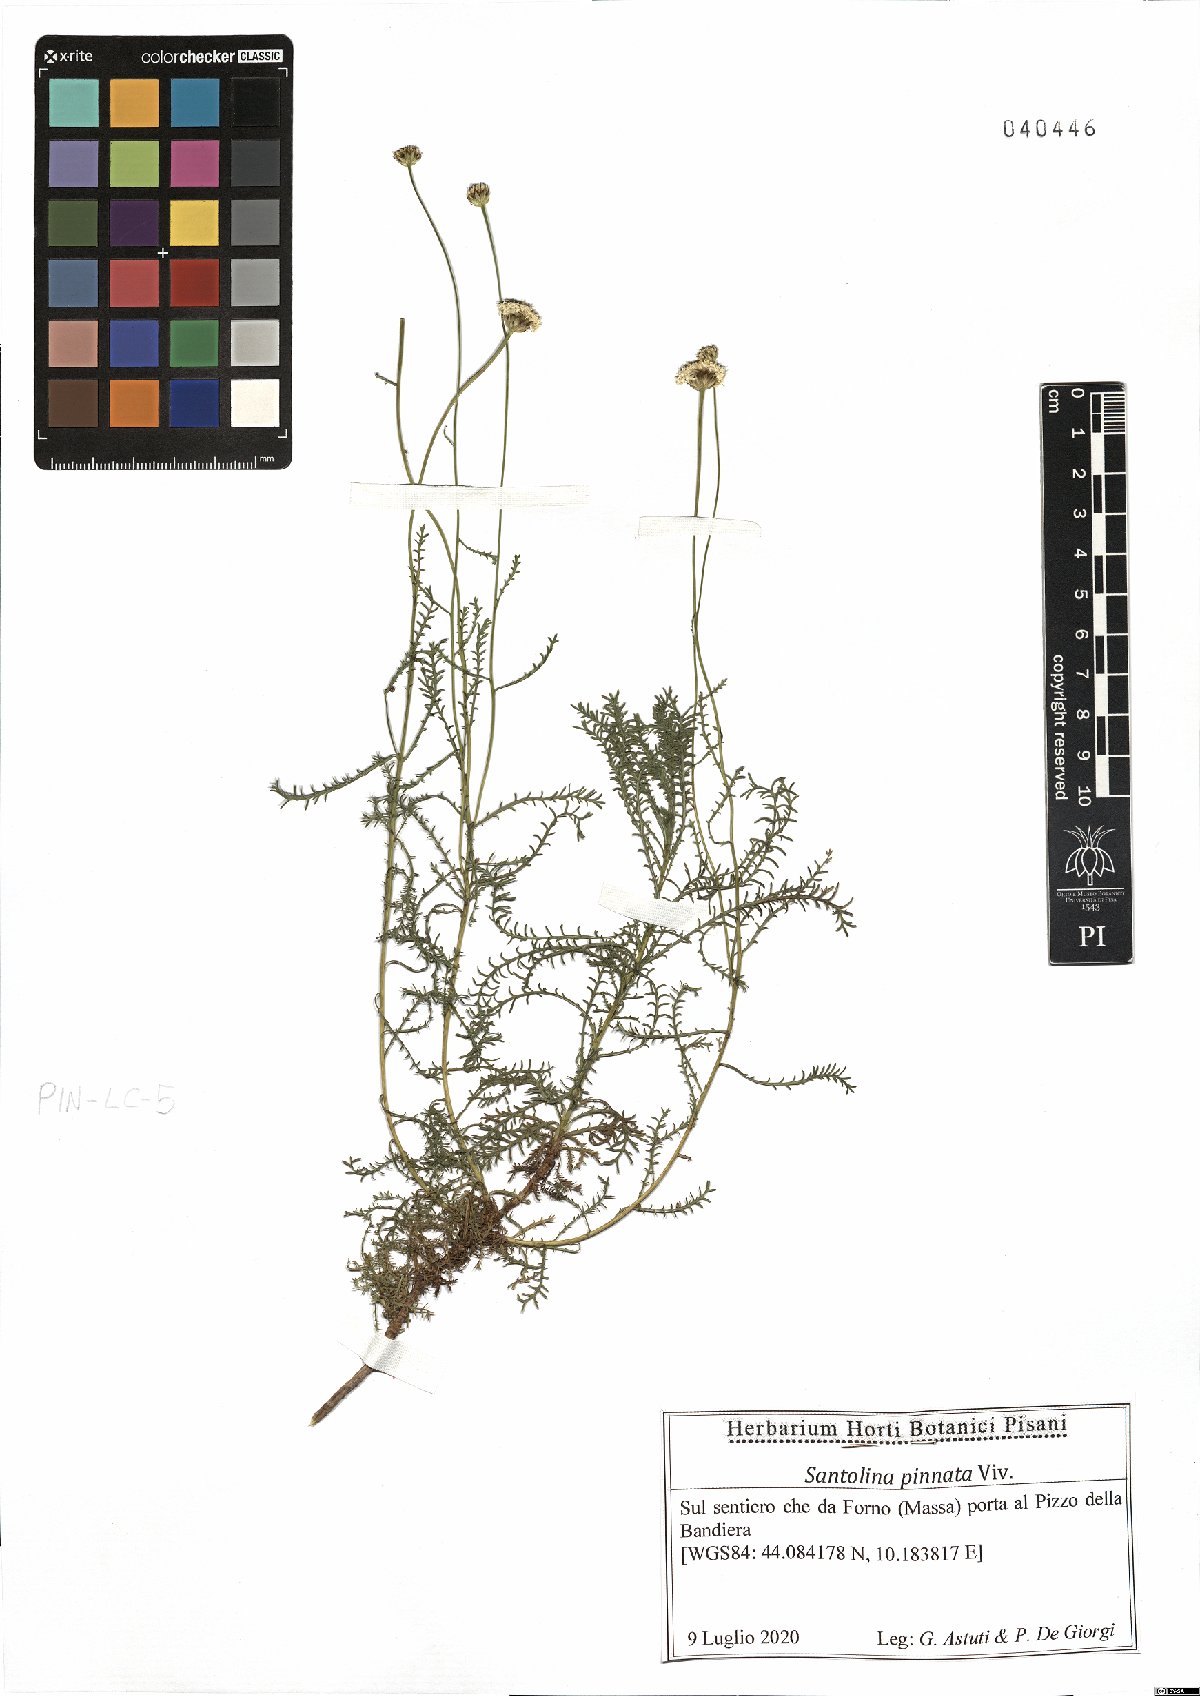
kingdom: Plantae
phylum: Tracheophyta
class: Magnoliopsida
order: Asterales
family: Asteraceae
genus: Santolina
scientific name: Santolina pinnata
